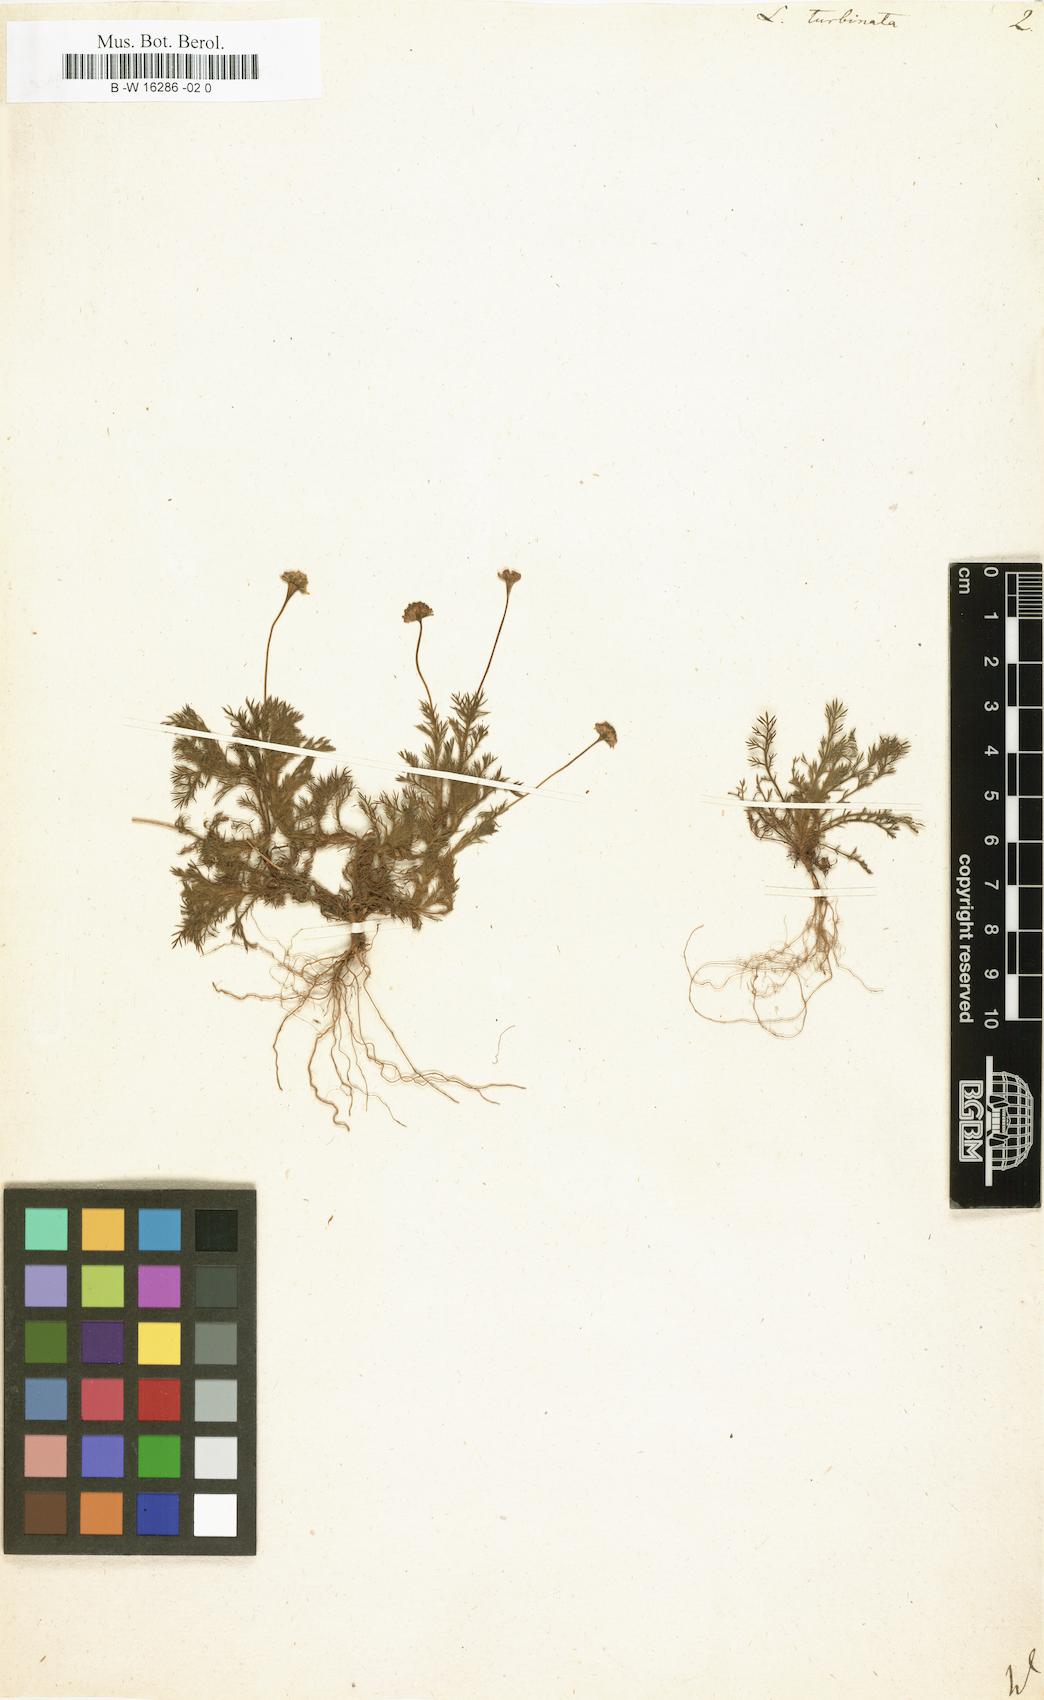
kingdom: Plantae
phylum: Tracheophyta
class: Magnoliopsida
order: Asterales
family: Asteraceae
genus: Cotula
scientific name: Cotula turbinata
